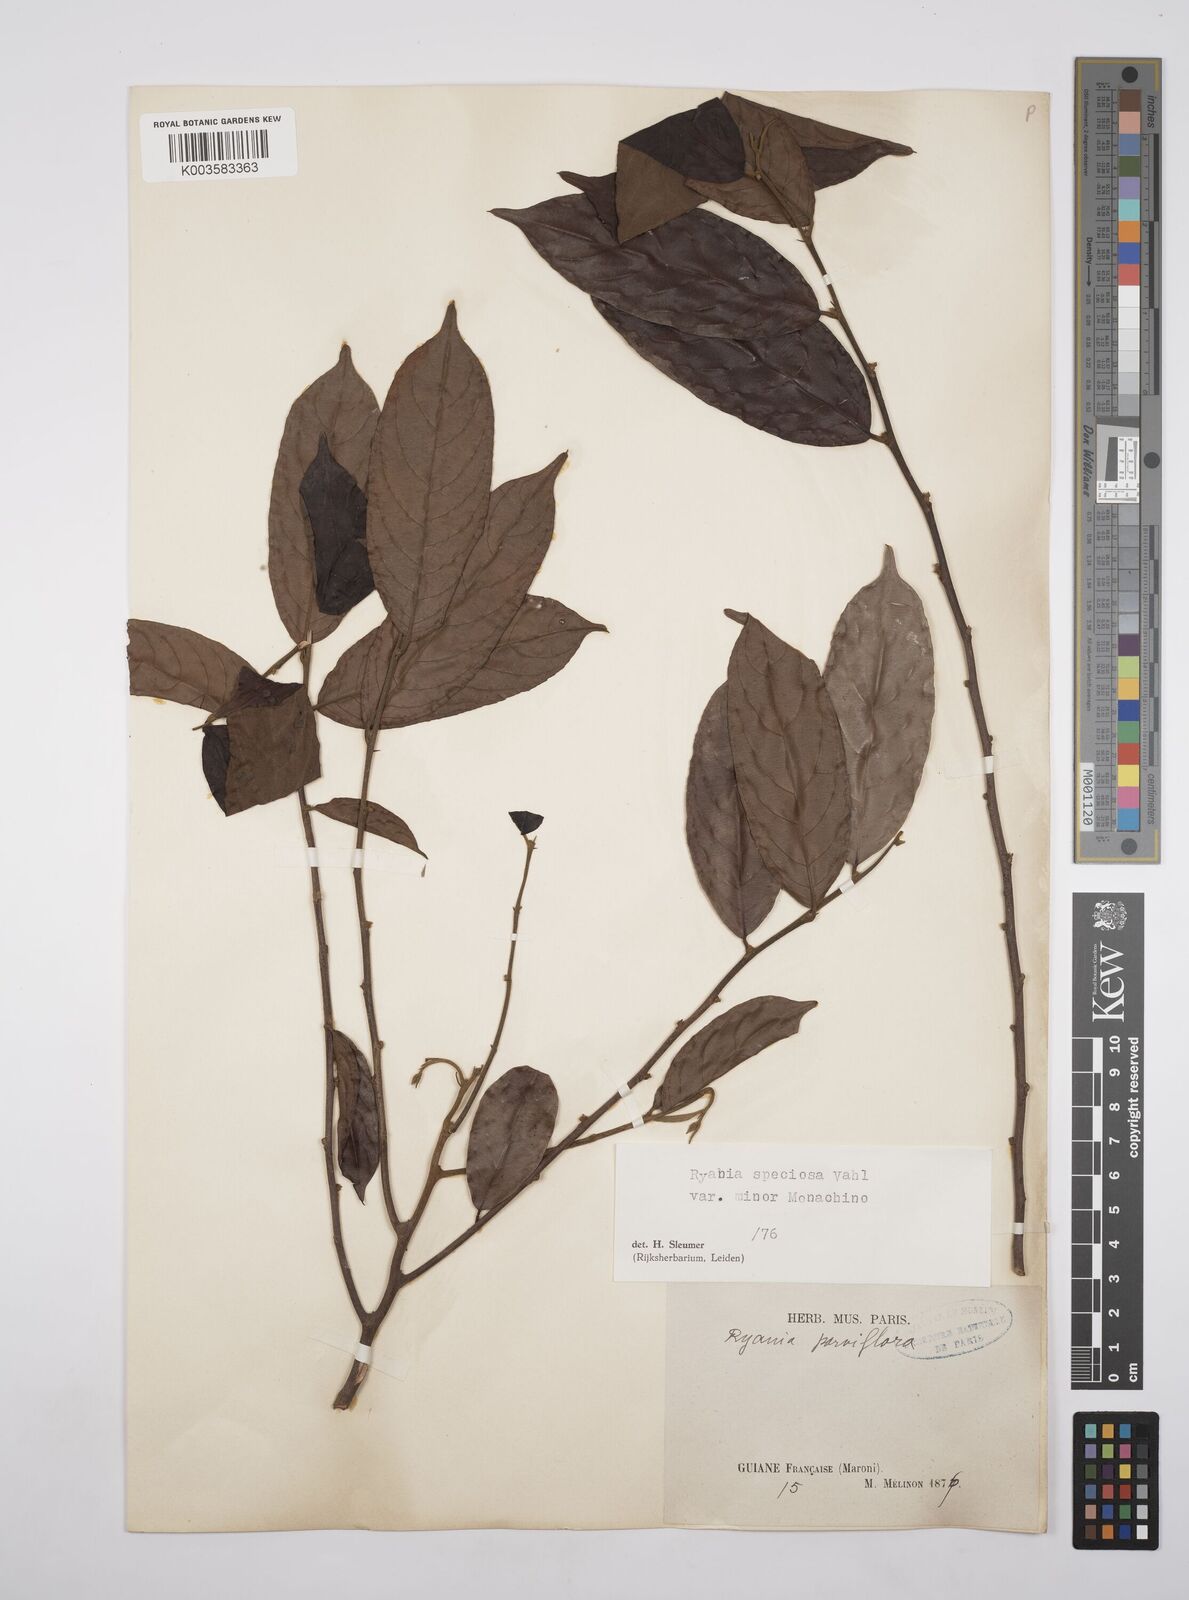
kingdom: Plantae
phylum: Tracheophyta
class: Magnoliopsida
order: Malpighiales
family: Salicaceae
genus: Ryania
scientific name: Ryania speciosa
